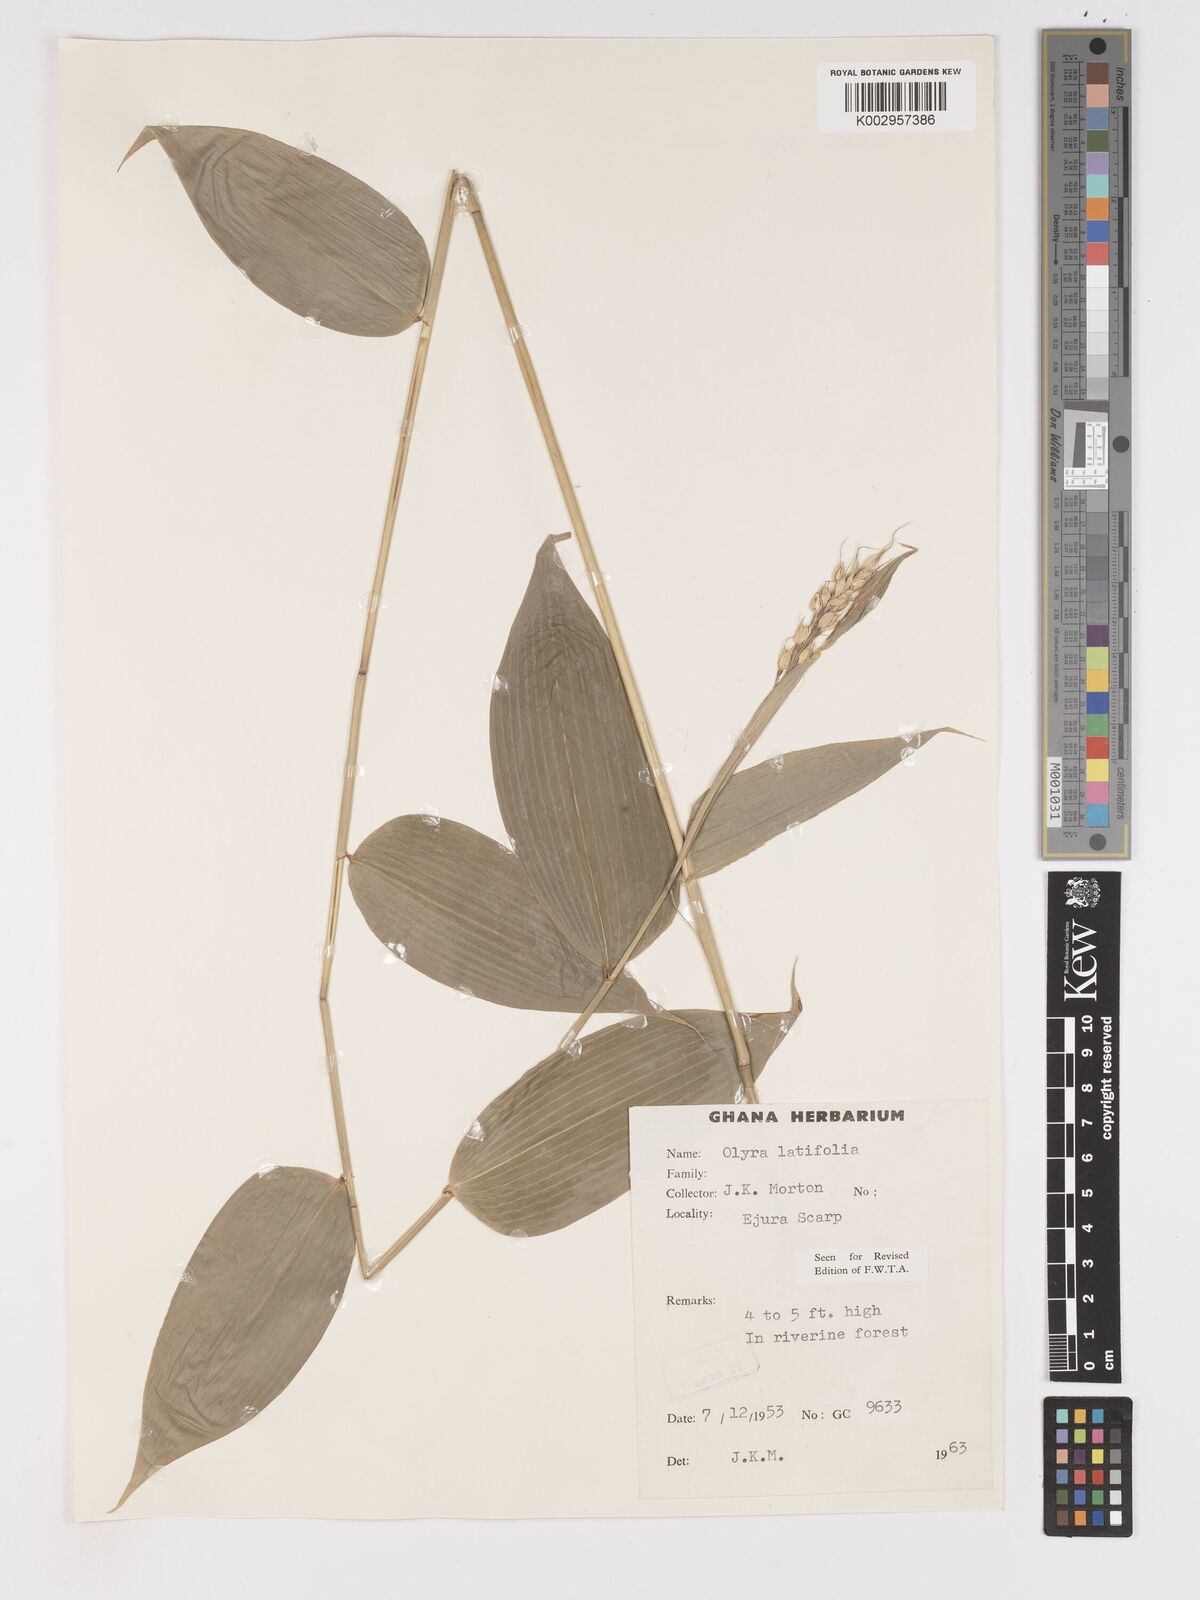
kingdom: Plantae
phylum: Tracheophyta
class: Liliopsida
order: Poales
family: Poaceae
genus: Olyra
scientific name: Olyra latifolia
